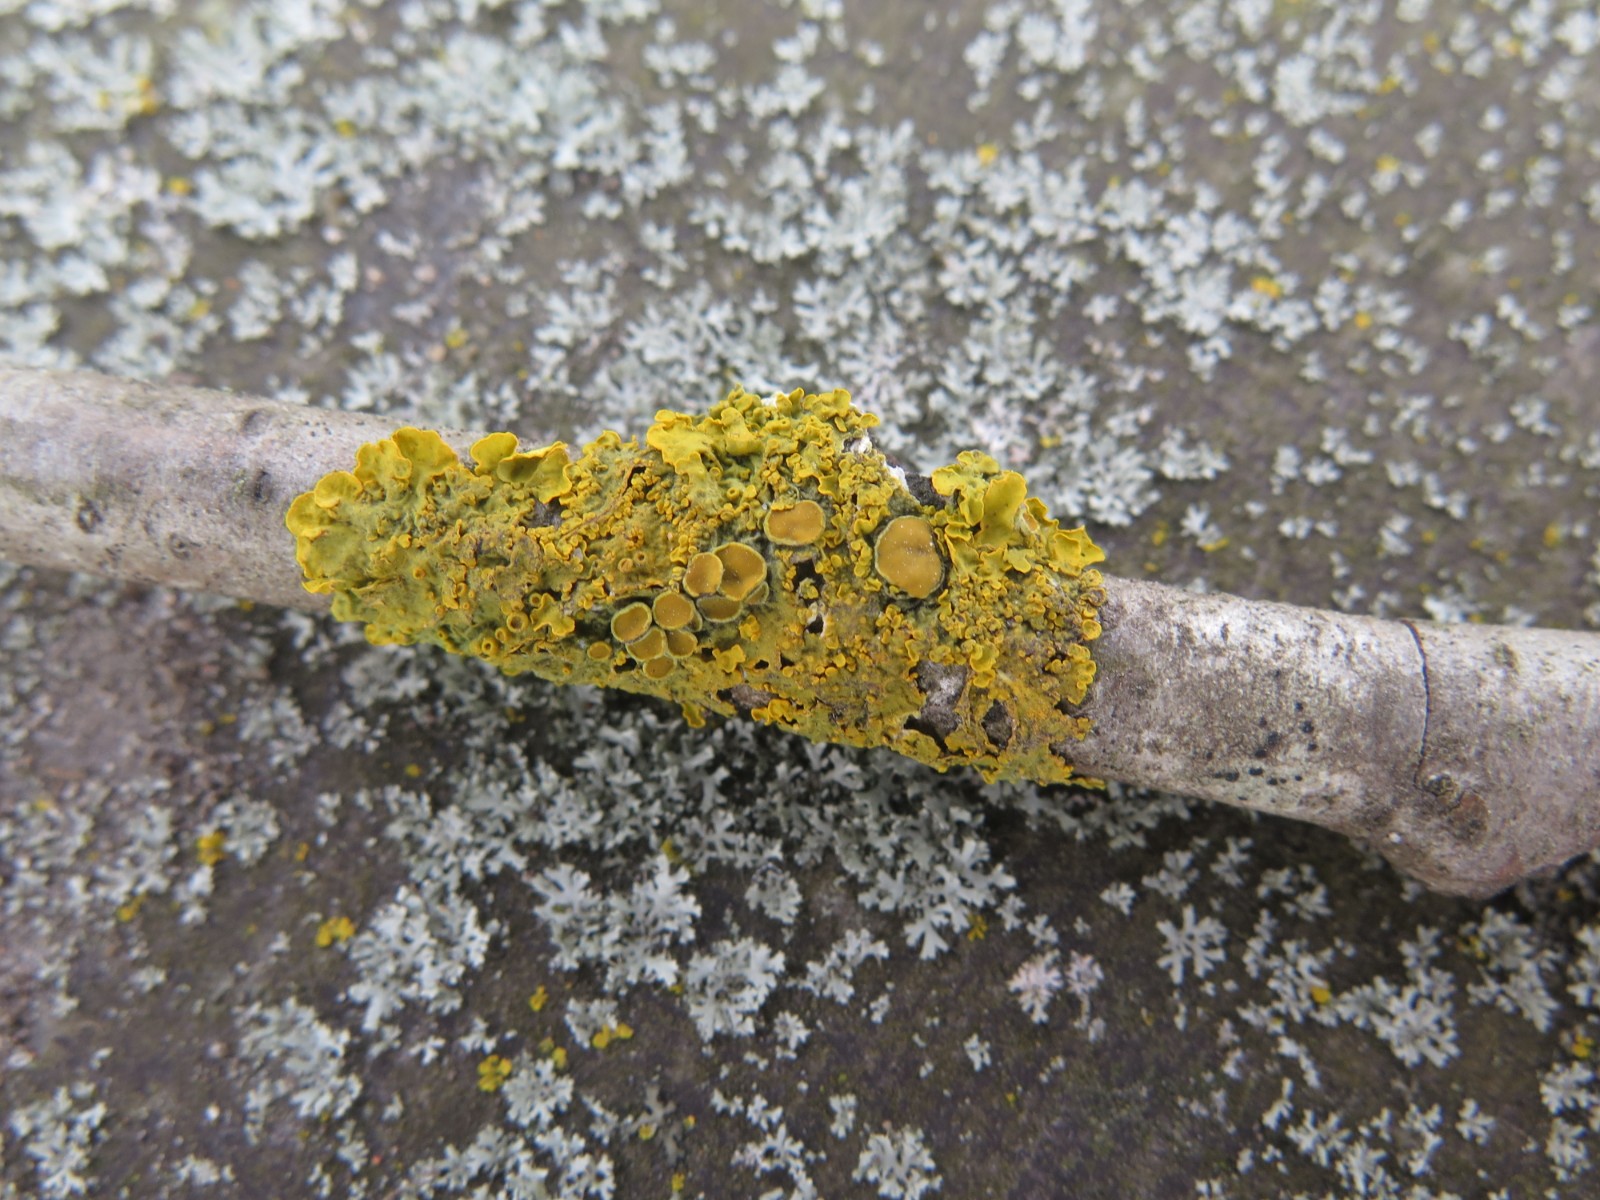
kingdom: Fungi
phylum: Ascomycota
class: Lecanoromycetes
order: Teloschistales
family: Teloschistaceae
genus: Xanthoria
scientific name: Xanthoria parietina
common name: almindelig væggelav
